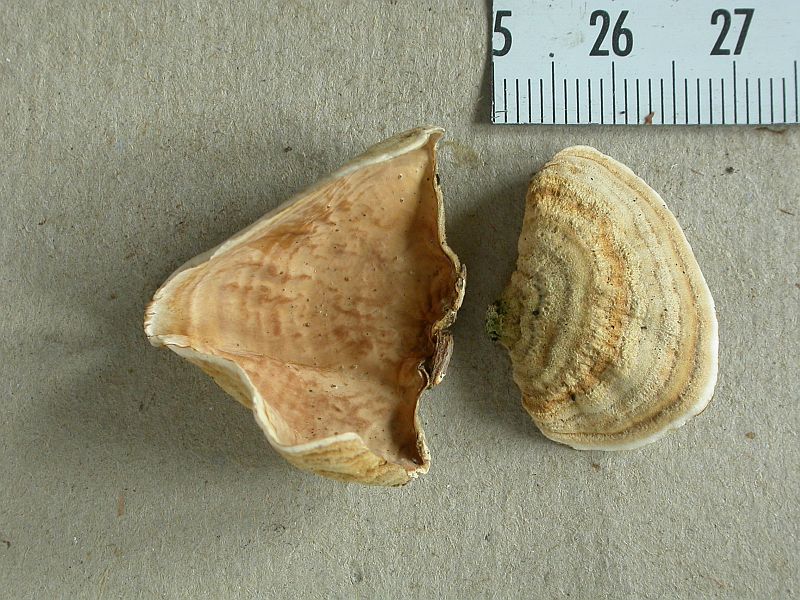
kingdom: Fungi
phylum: Basidiomycota
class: Agaricomycetes
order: Russulales
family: Stereaceae
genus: Stereum
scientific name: Stereum subtomentosum
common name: smuk lædersvamp
